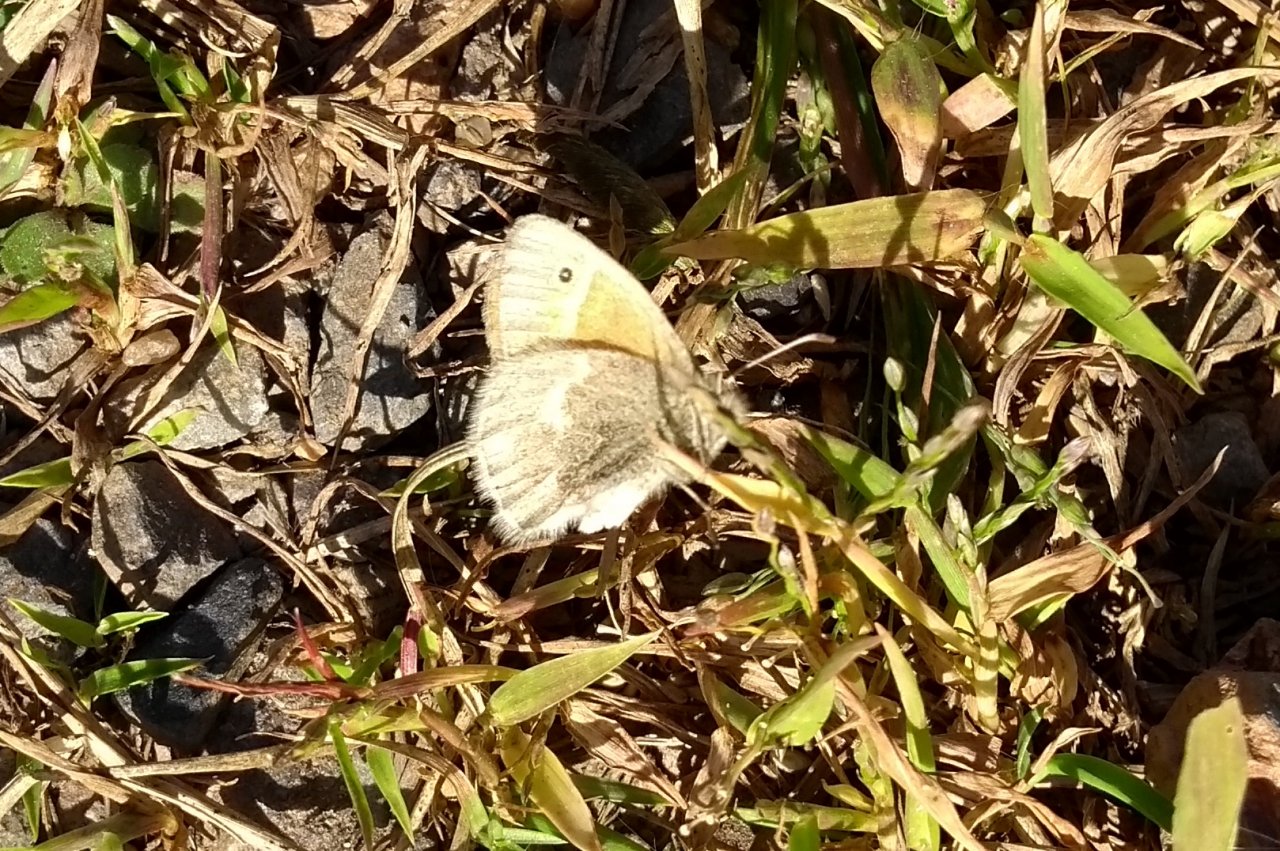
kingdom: Animalia
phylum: Arthropoda
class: Insecta
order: Lepidoptera
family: Nymphalidae
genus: Coenonympha
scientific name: Coenonympha tullia
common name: Large Heath
